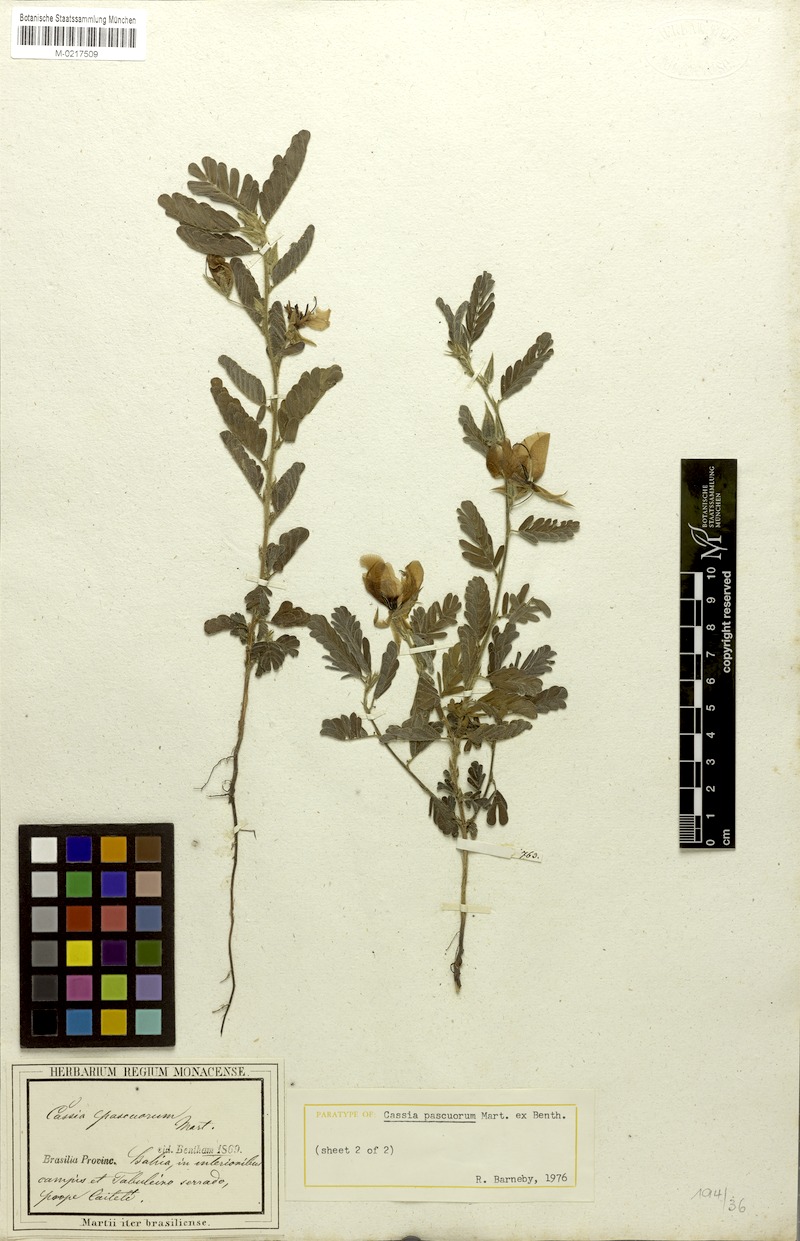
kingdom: Plantae
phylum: Tracheophyta
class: Magnoliopsida
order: Fabales
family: Fabaceae
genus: Chamaecrista
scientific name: Chamaecrista pascuorum
